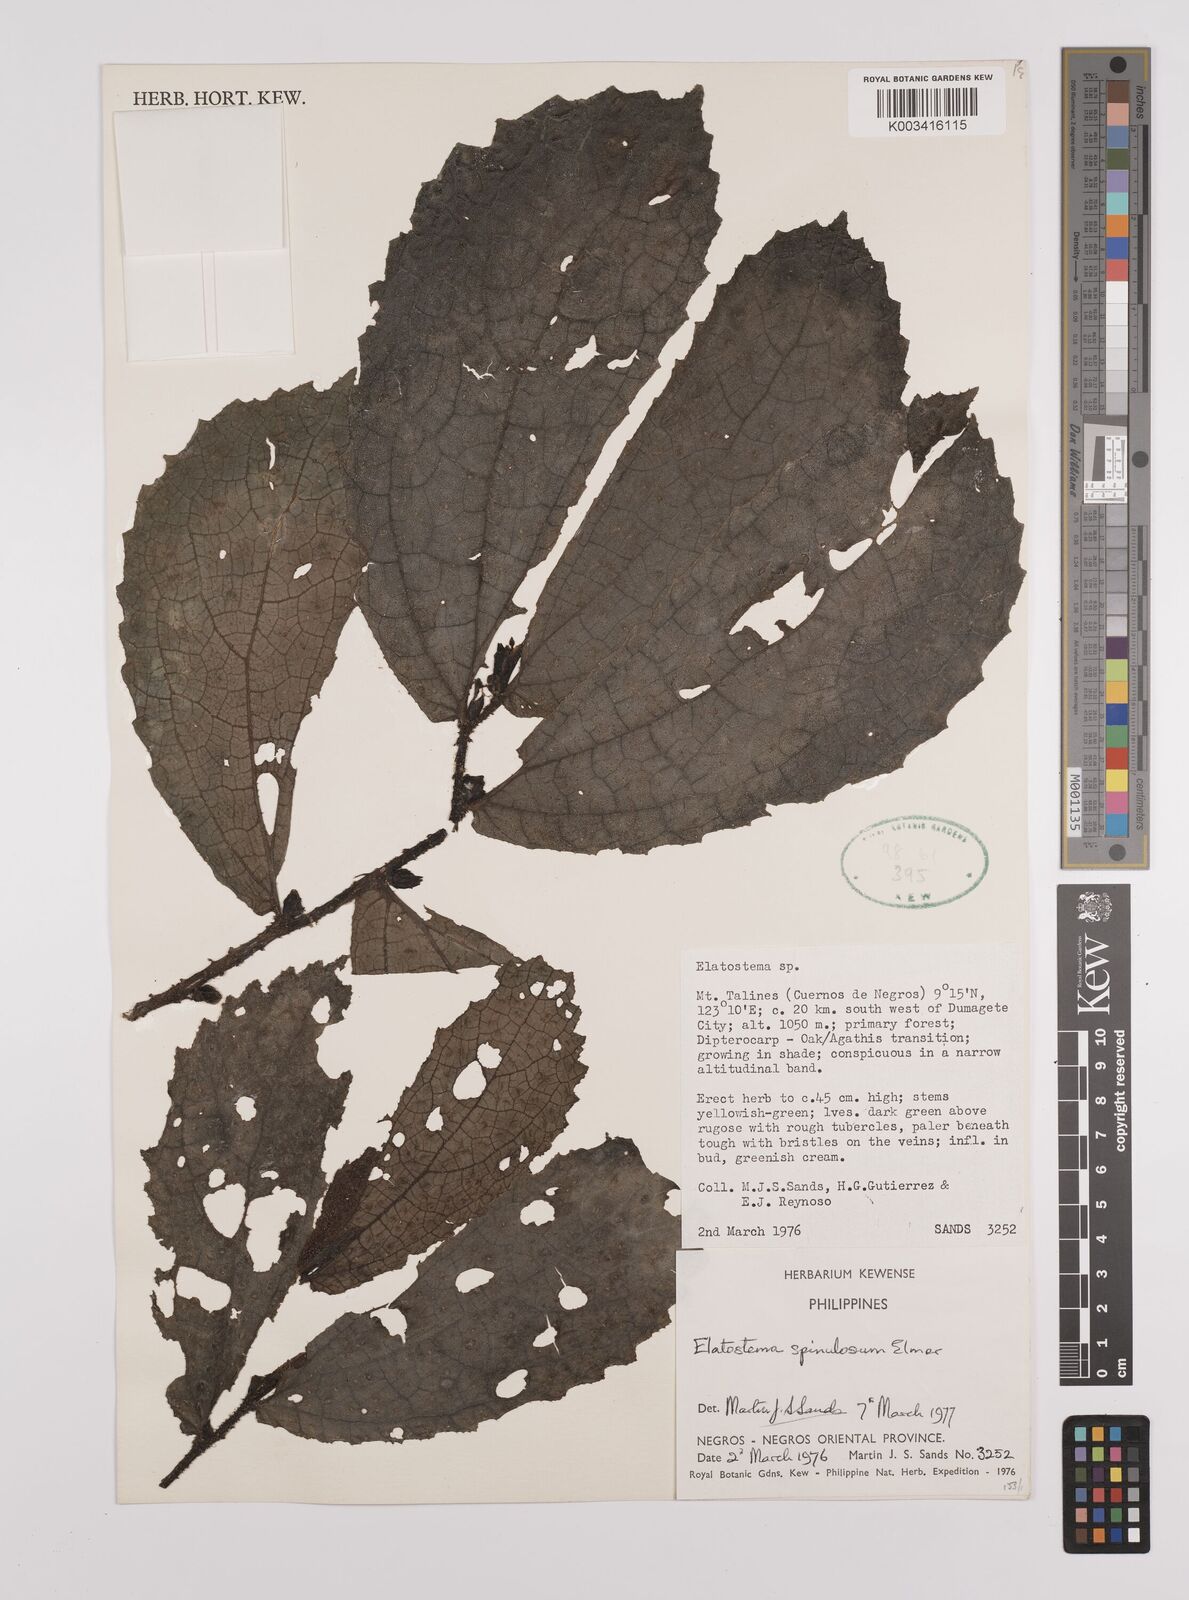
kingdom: Plantae
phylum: Tracheophyta
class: Magnoliopsida
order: Rosales
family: Urticaceae
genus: Elatostema
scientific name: Elatostema spinulosum
